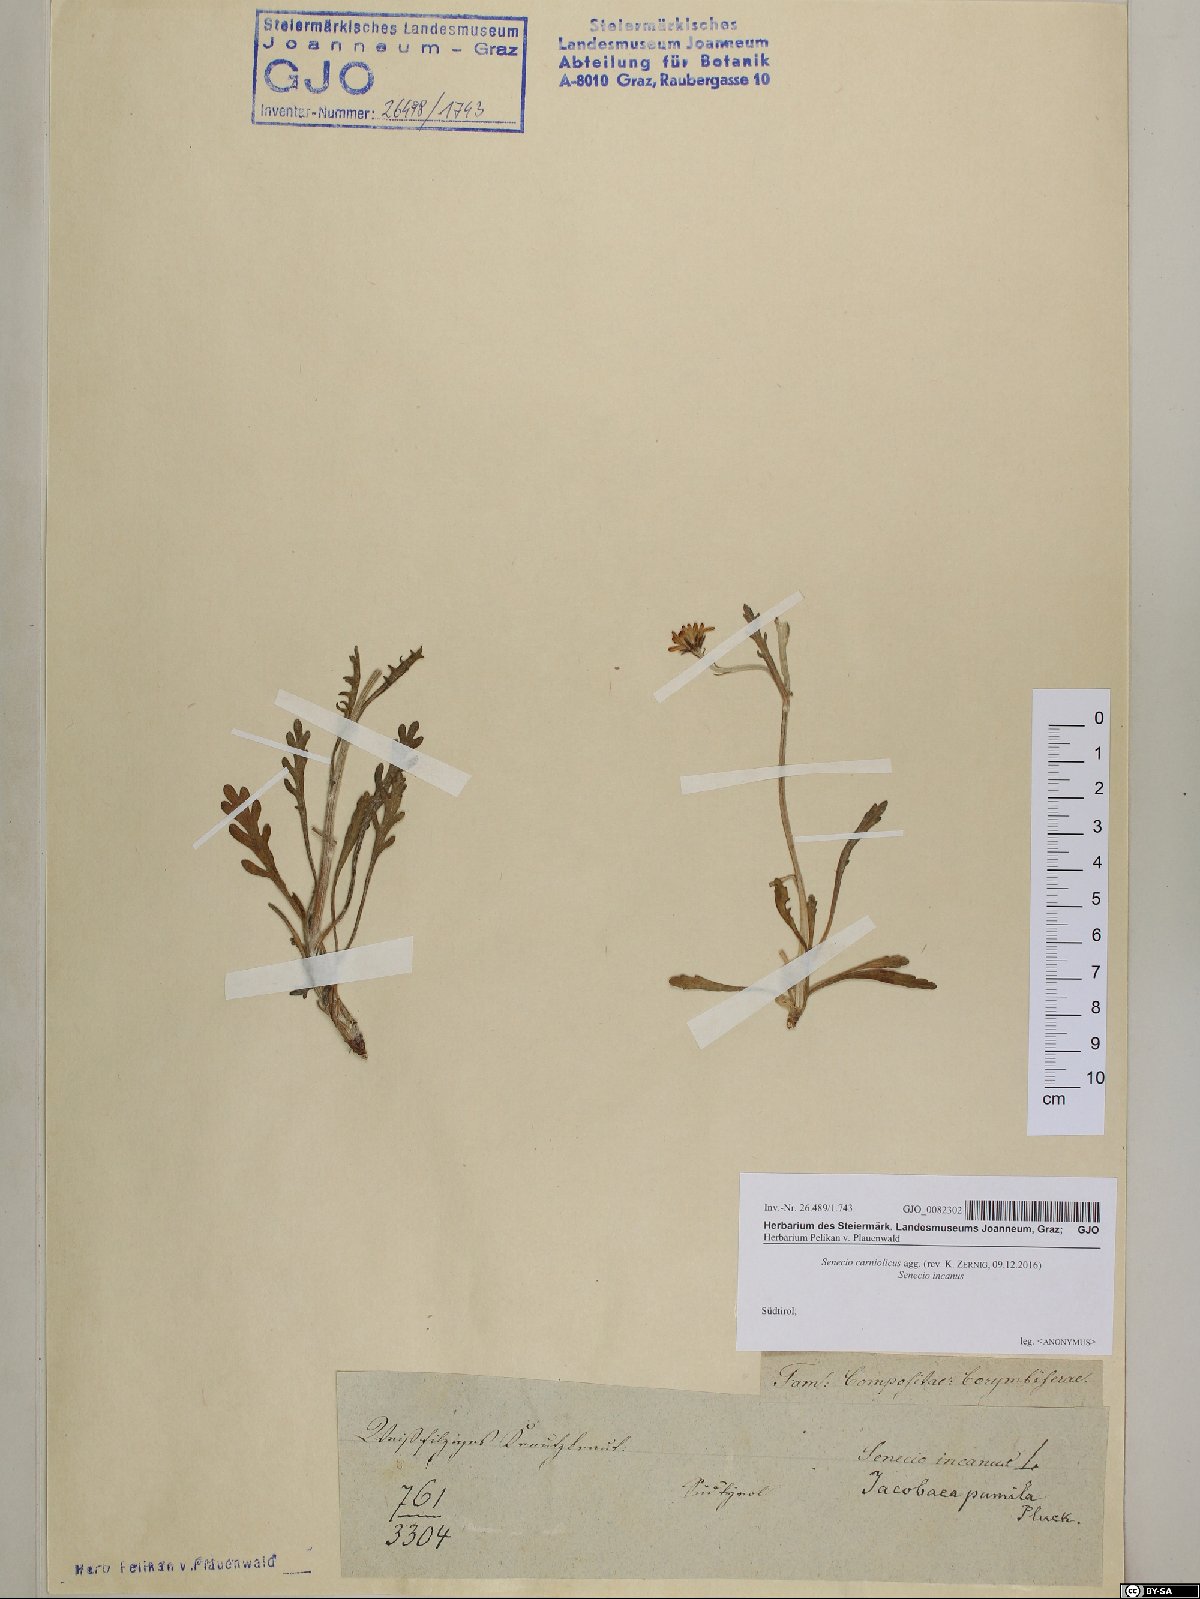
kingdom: Plantae
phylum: Tracheophyta
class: Magnoliopsida
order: Asterales
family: Asteraceae
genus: Jacobaea
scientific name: Jacobaea carniolica
